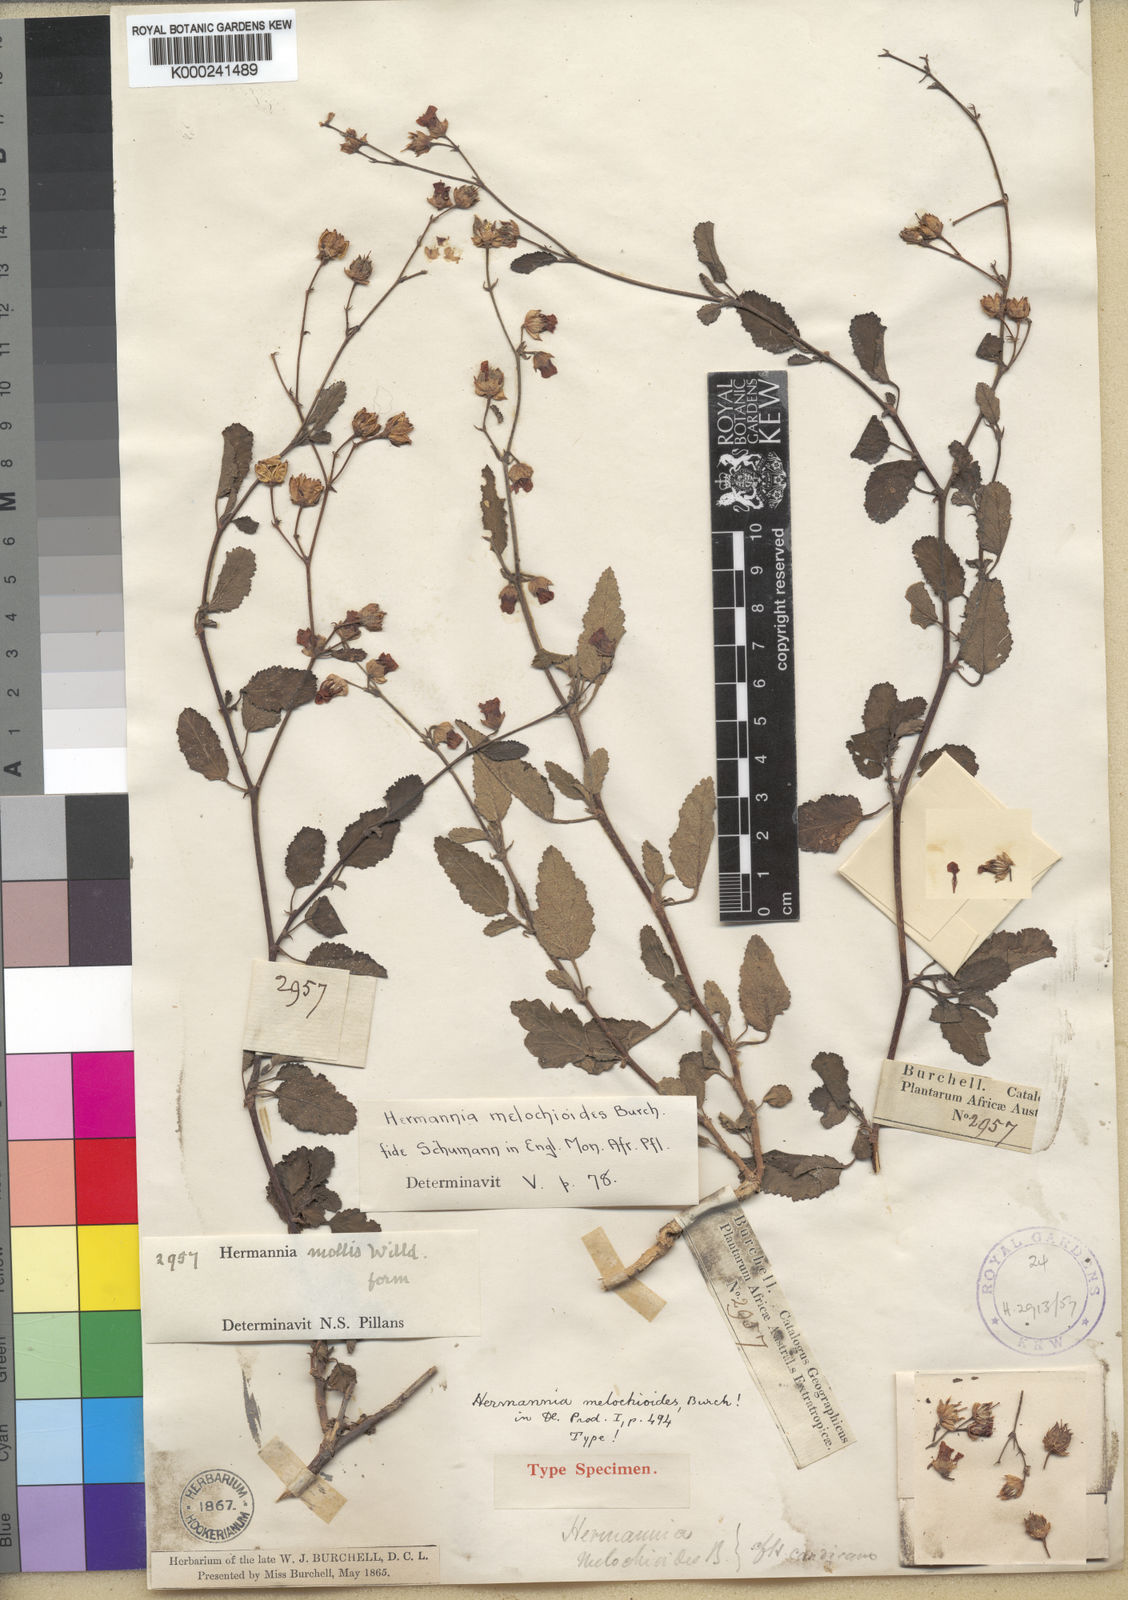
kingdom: Plantae
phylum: Tracheophyta
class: Magnoliopsida
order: Malvales
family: Malvaceae
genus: Hermannia
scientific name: Hermannia incana
